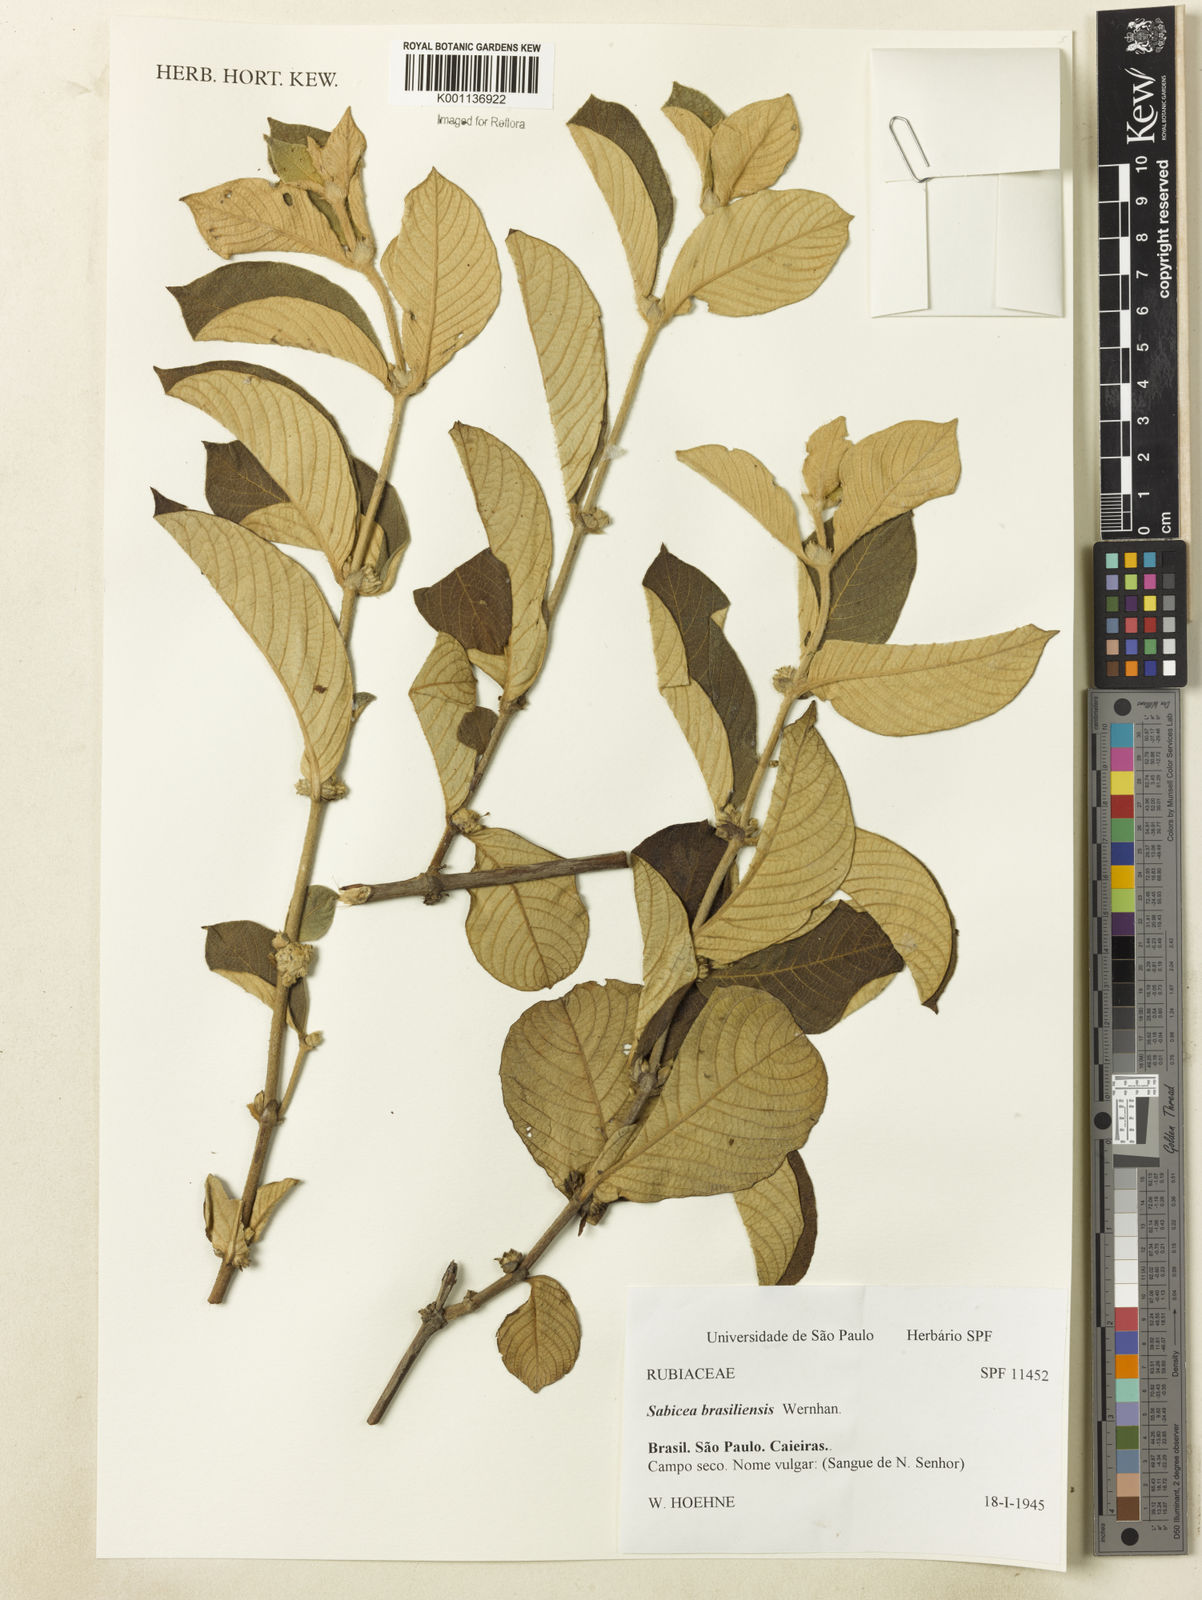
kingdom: Plantae
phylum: Tracheophyta
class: Magnoliopsida
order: Gentianales
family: Rubiaceae
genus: Sabicea
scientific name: Sabicea brasiliensis
